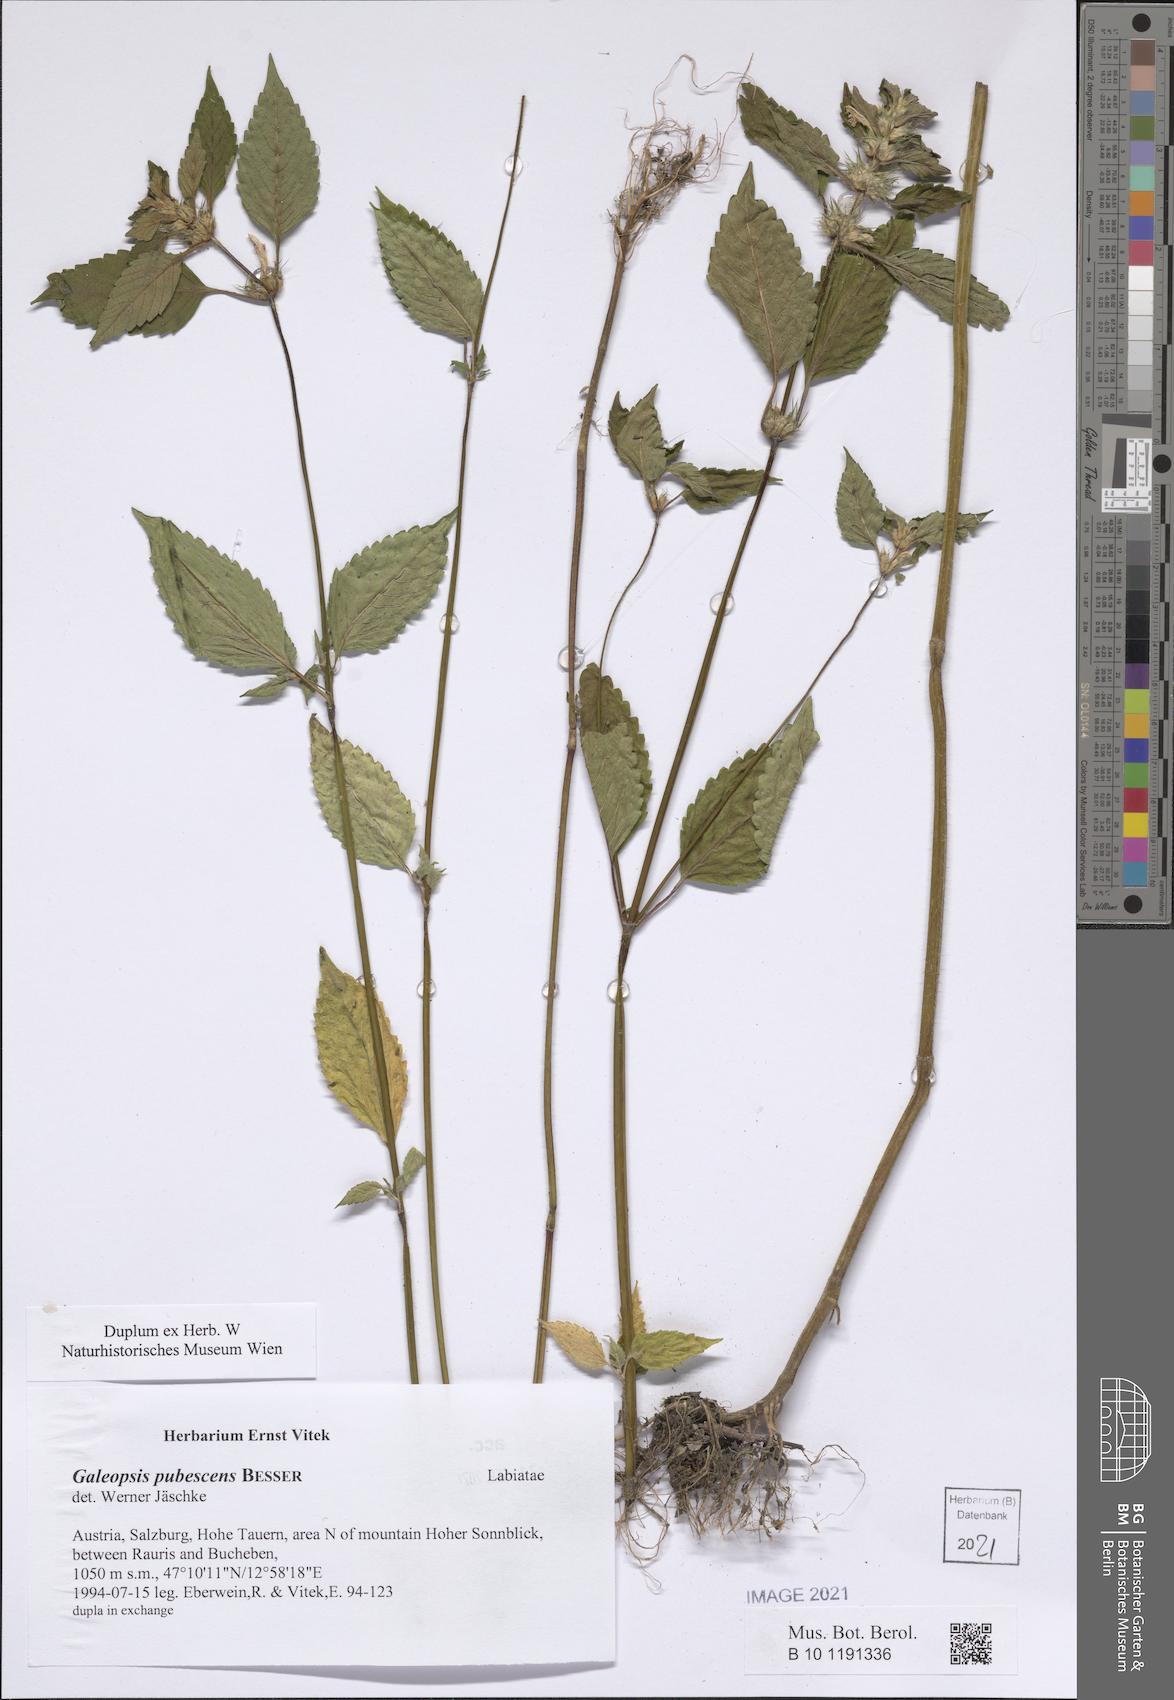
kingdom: Plantae
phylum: Tracheophyta
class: Magnoliopsida
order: Lamiales
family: Lamiaceae
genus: Galeopsis
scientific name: Galeopsis pubescens
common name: Downy hemp-nettle
